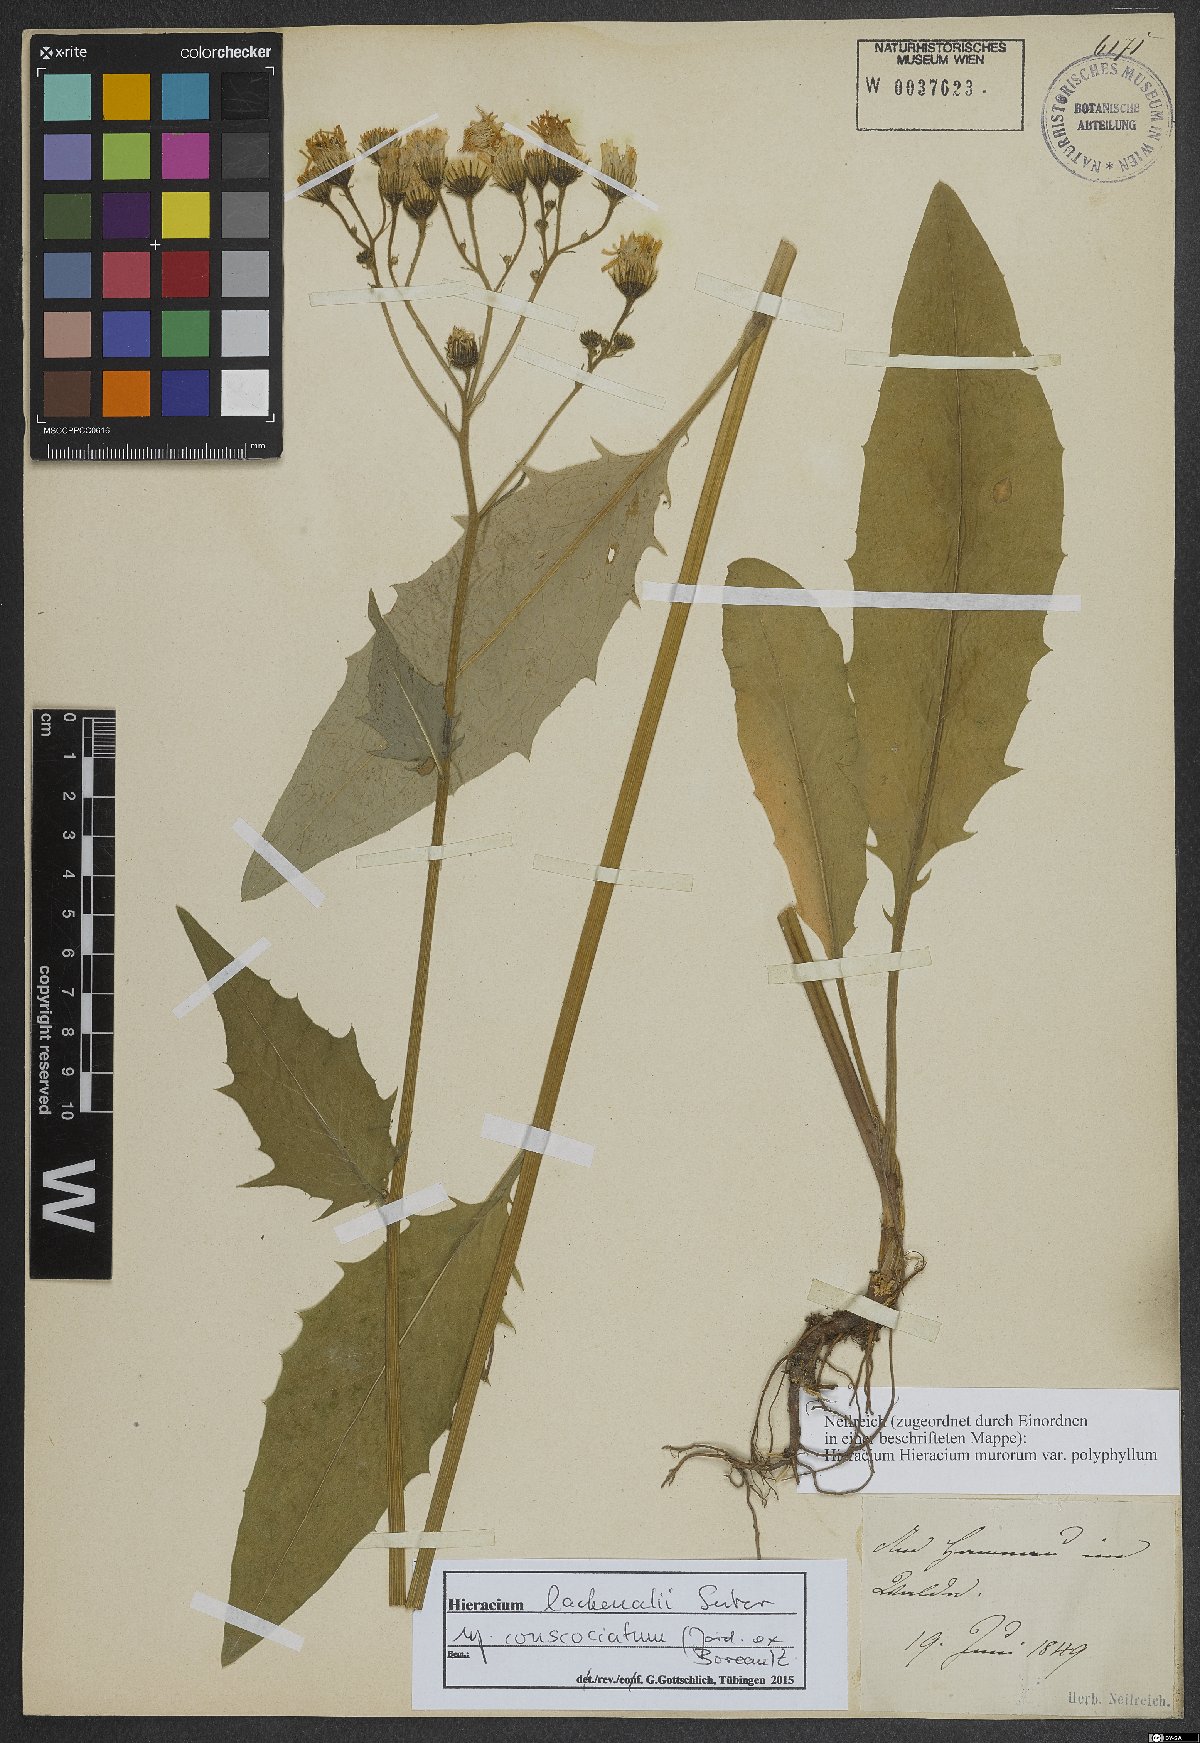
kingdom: Plantae
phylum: Tracheophyta
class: Magnoliopsida
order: Asterales
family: Asteraceae
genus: Hieracium
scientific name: Hieracium lachenalii
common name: Common hawkweed
